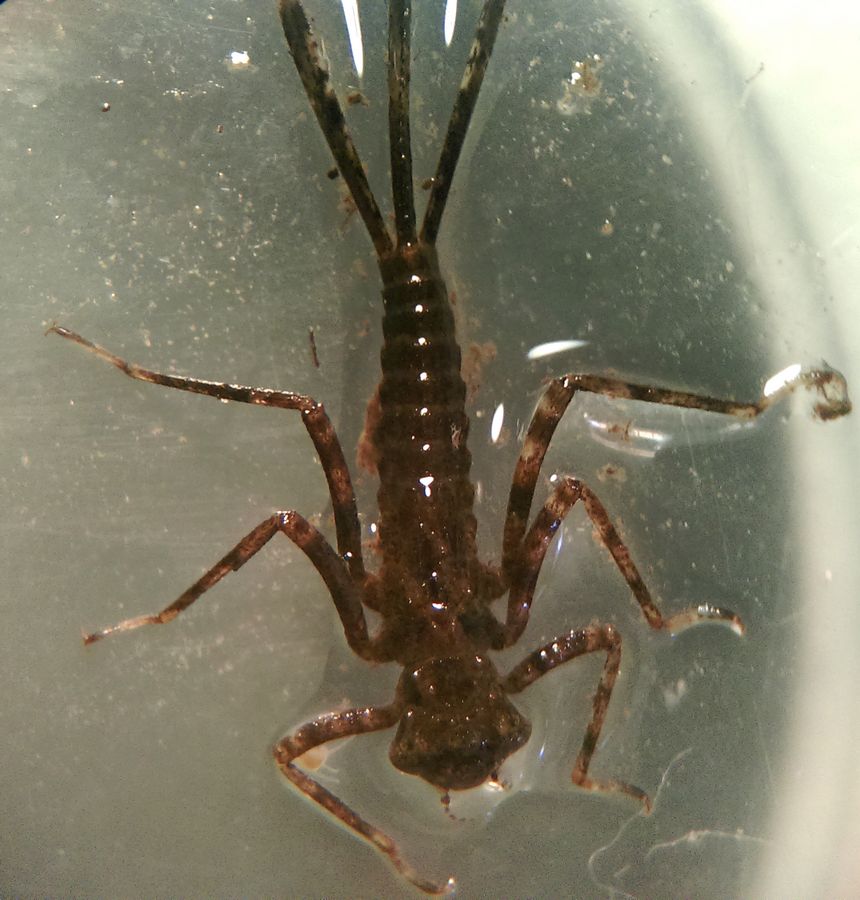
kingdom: Animalia
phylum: Arthropoda
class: Insecta
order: Odonata
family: Platycnemididae
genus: Platycnemis
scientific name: Platycnemis pennipes
